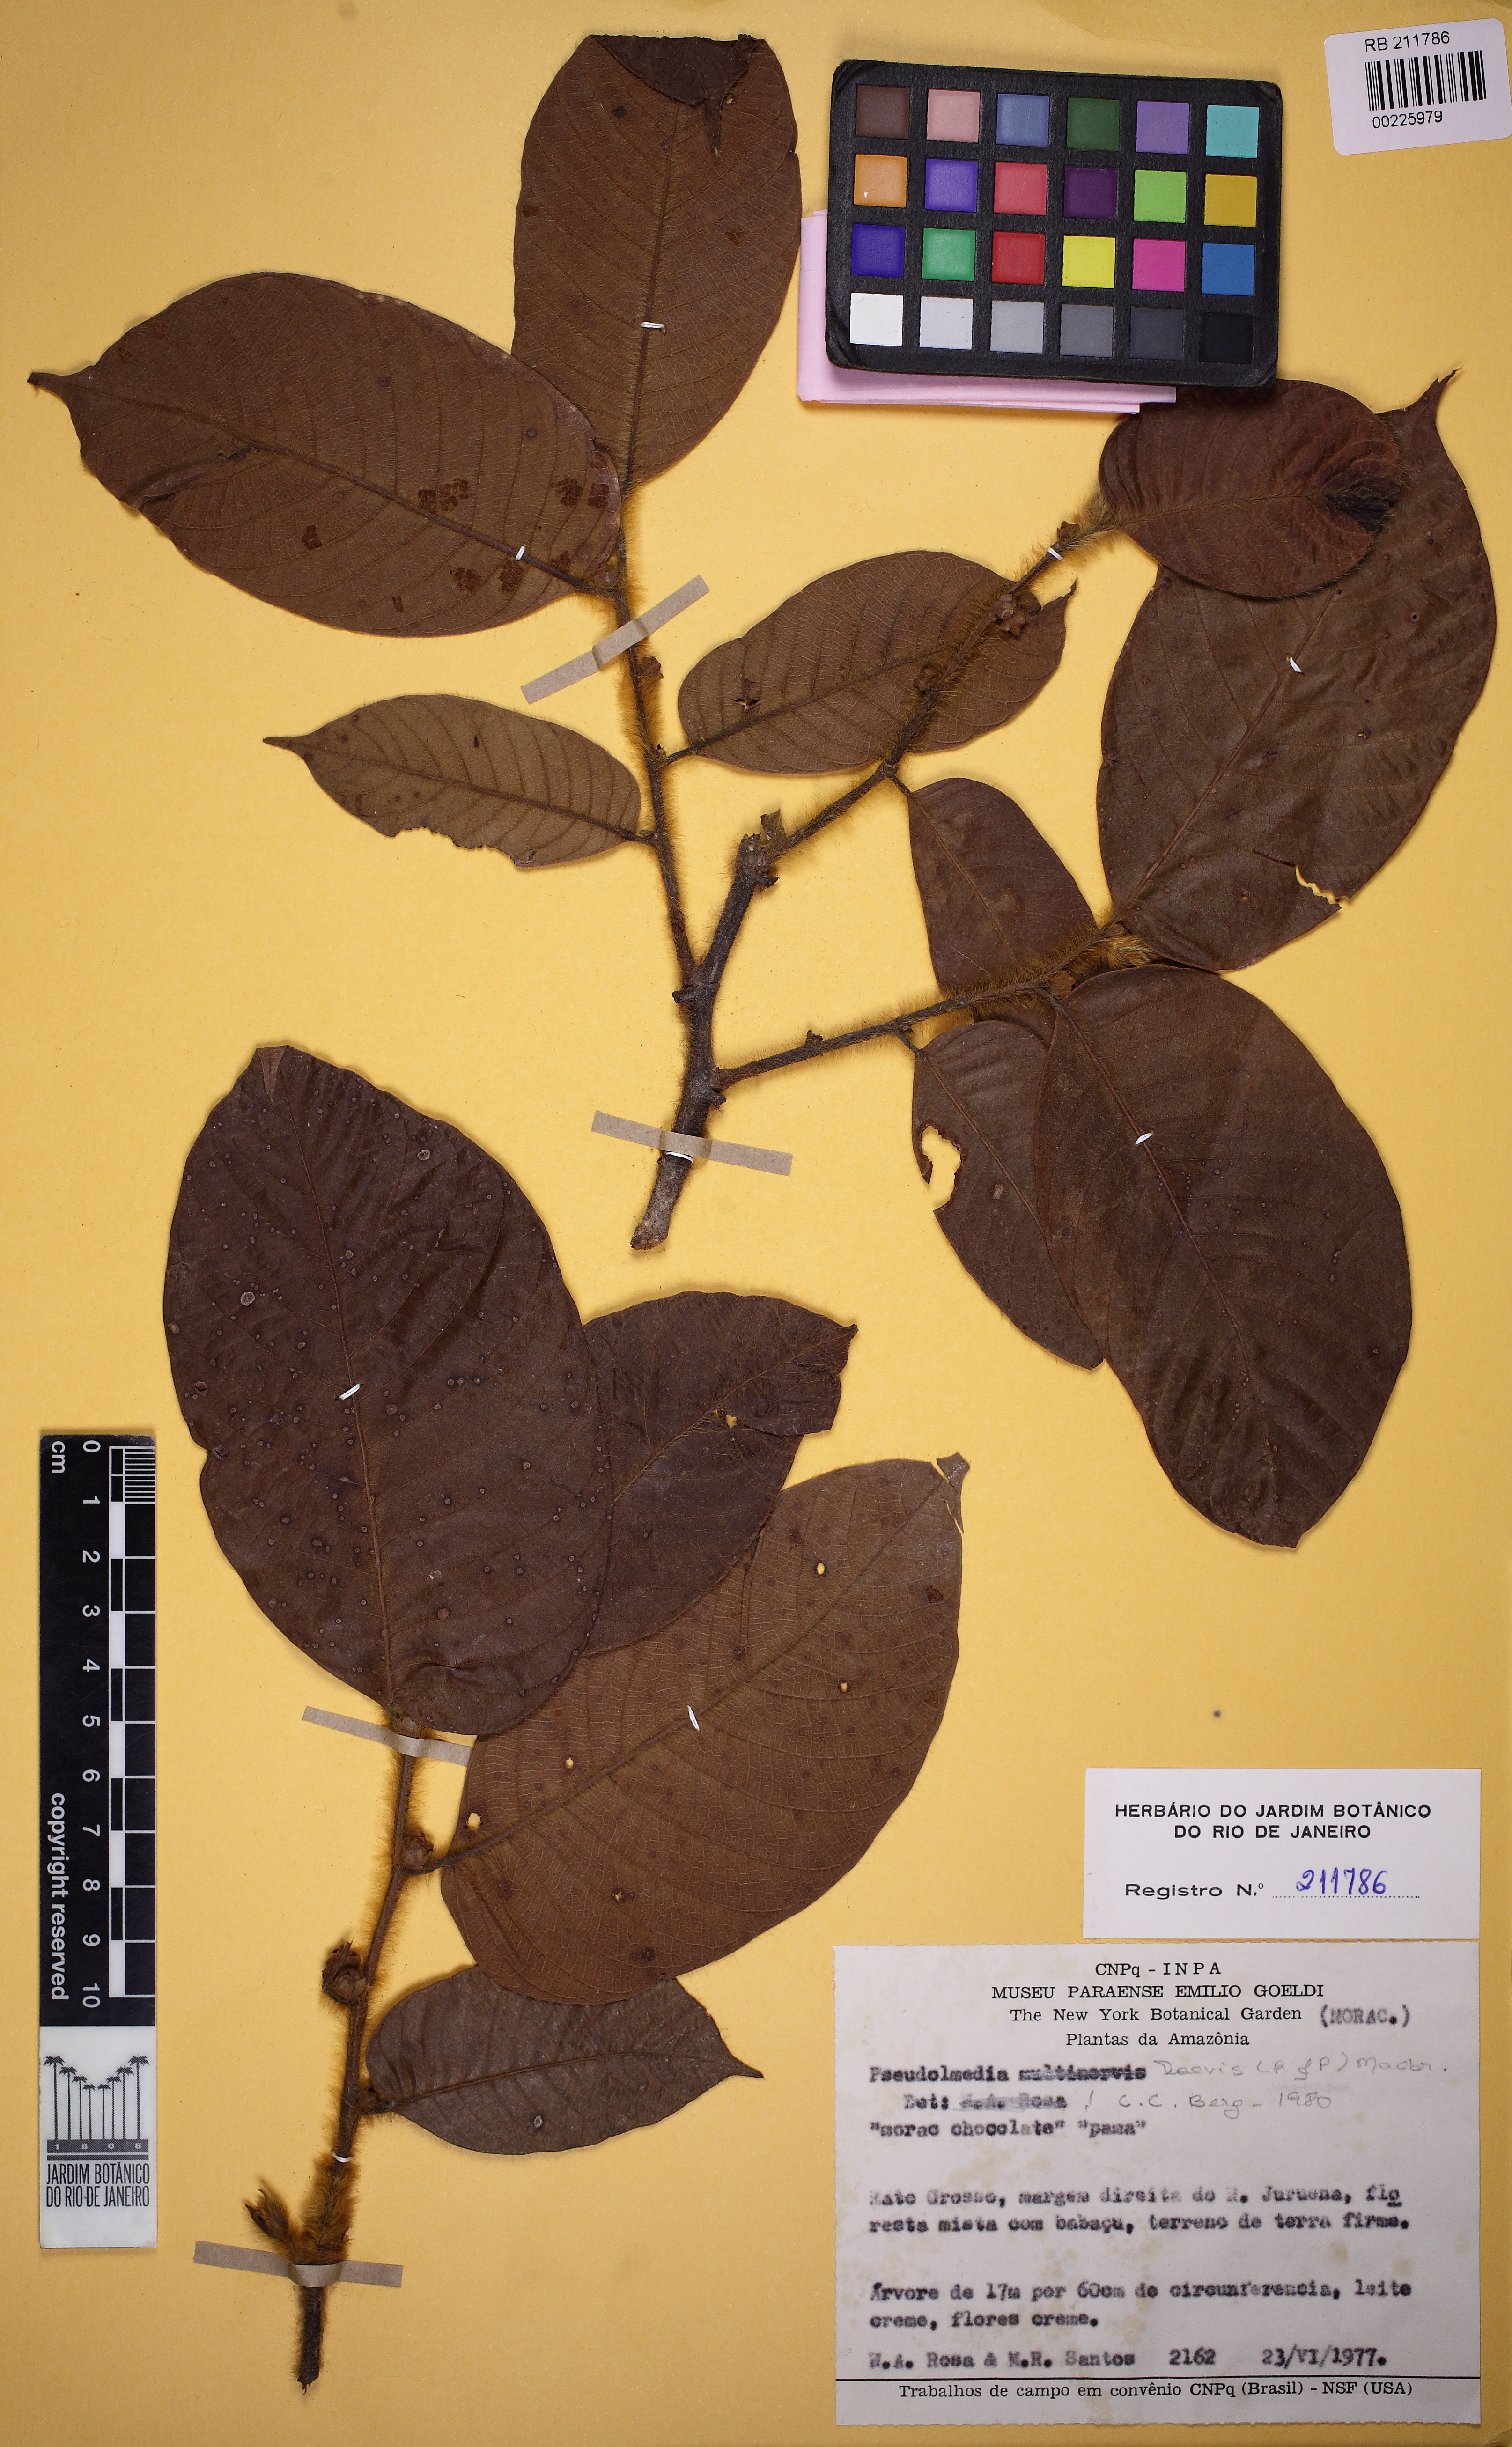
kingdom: Plantae
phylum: Tracheophyta
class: Magnoliopsida
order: Rosales
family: Moraceae
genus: Pseudolmedia
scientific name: Pseudolmedia laevis
